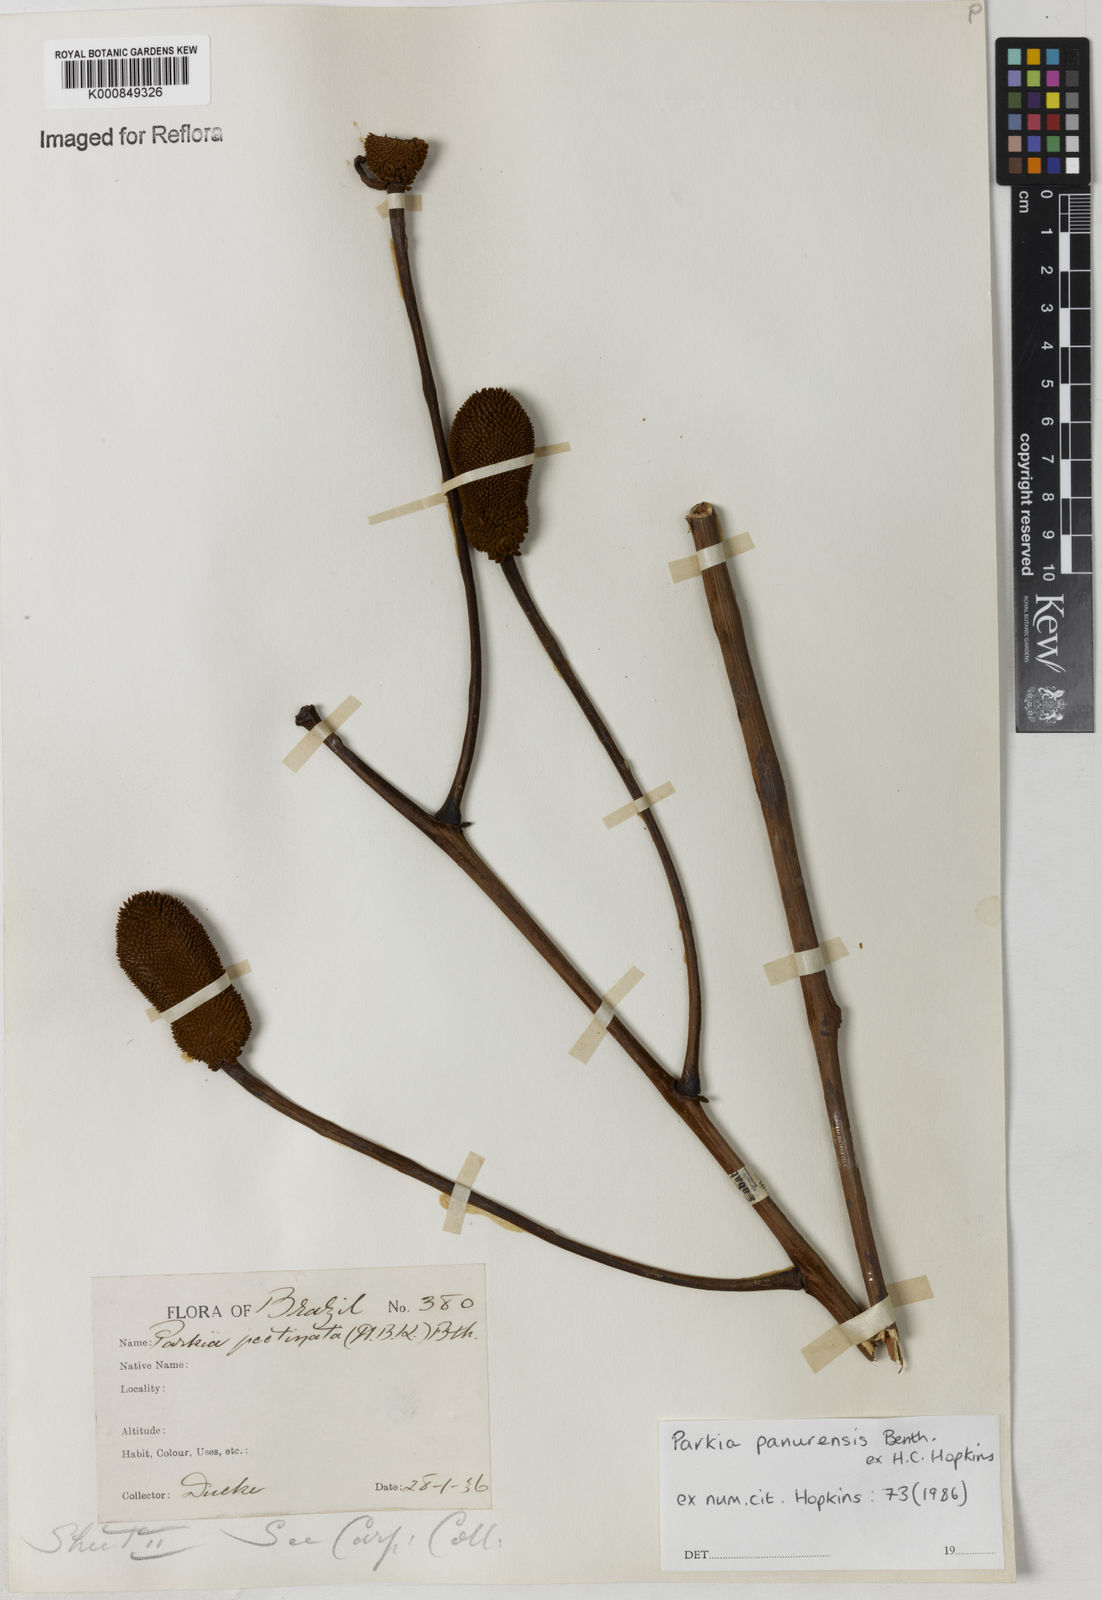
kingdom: Plantae
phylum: Tracheophyta
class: Magnoliopsida
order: Fabales
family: Fabaceae
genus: Parkia
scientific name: Parkia pectinata
